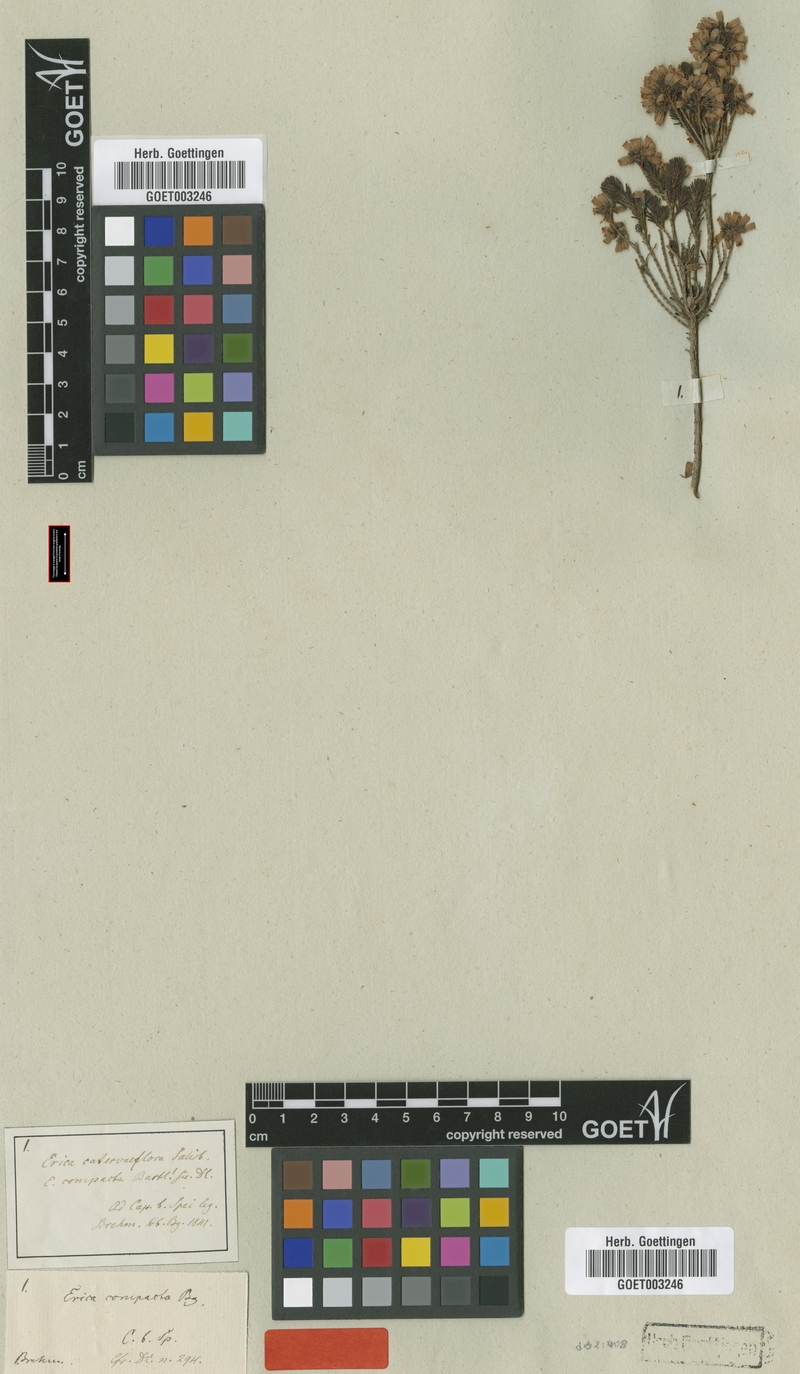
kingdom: Plantae
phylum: Tracheophyta
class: Magnoliopsida
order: Ericales
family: Ericaceae
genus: Erica
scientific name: Erica caterviflora
